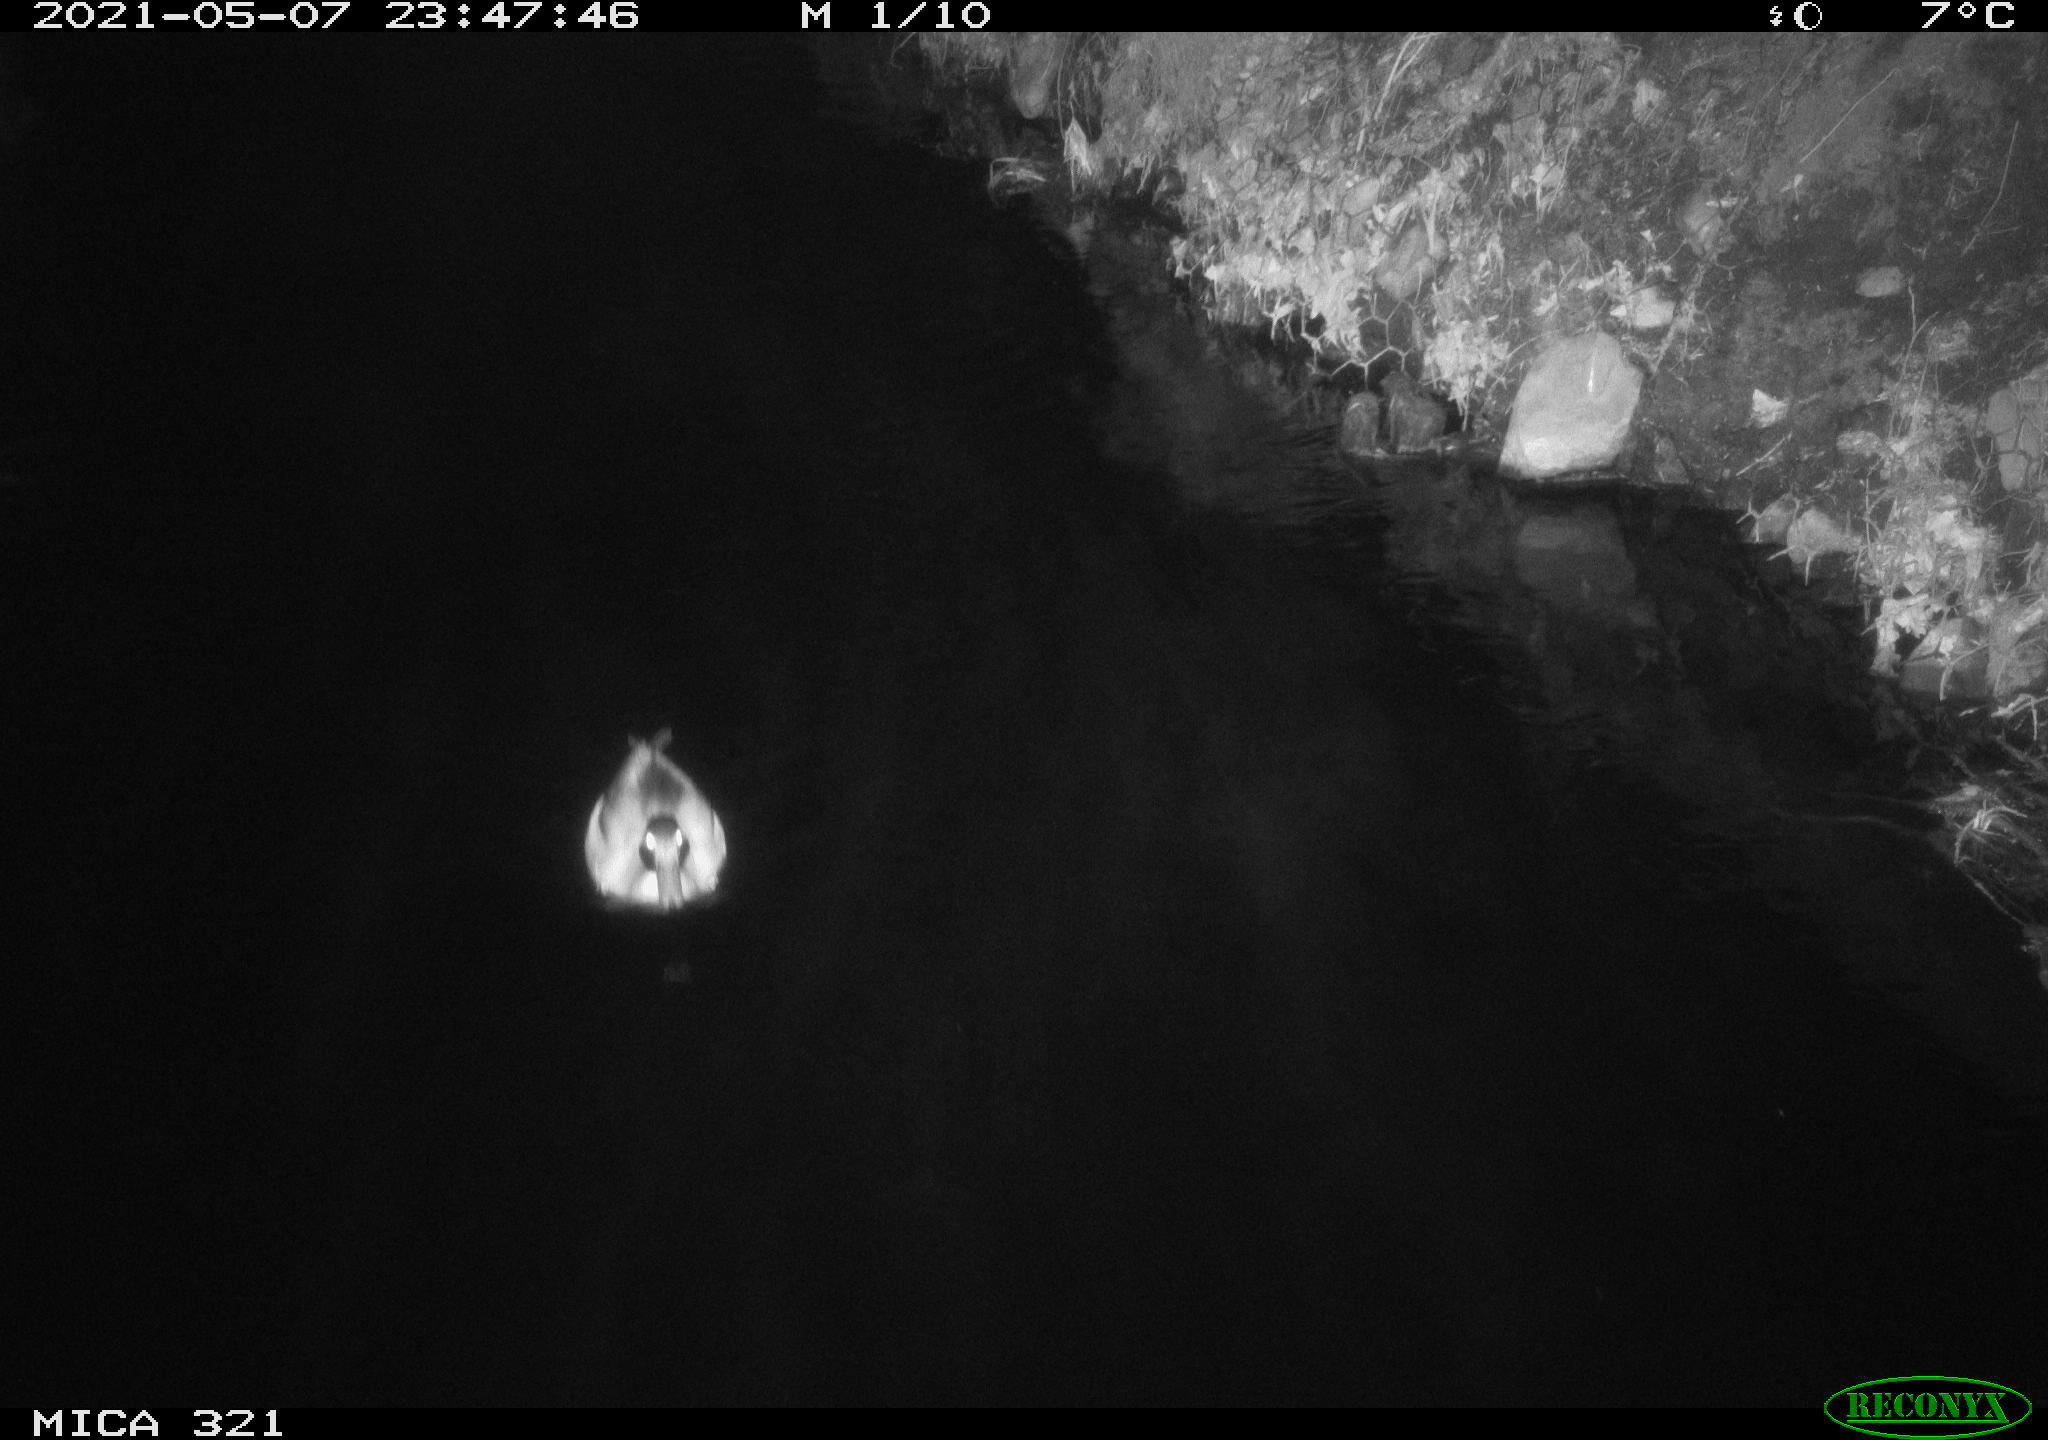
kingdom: Animalia
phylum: Chordata
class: Aves
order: Anseriformes
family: Anatidae
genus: Anas
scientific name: Anas platyrhynchos
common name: Mallard
